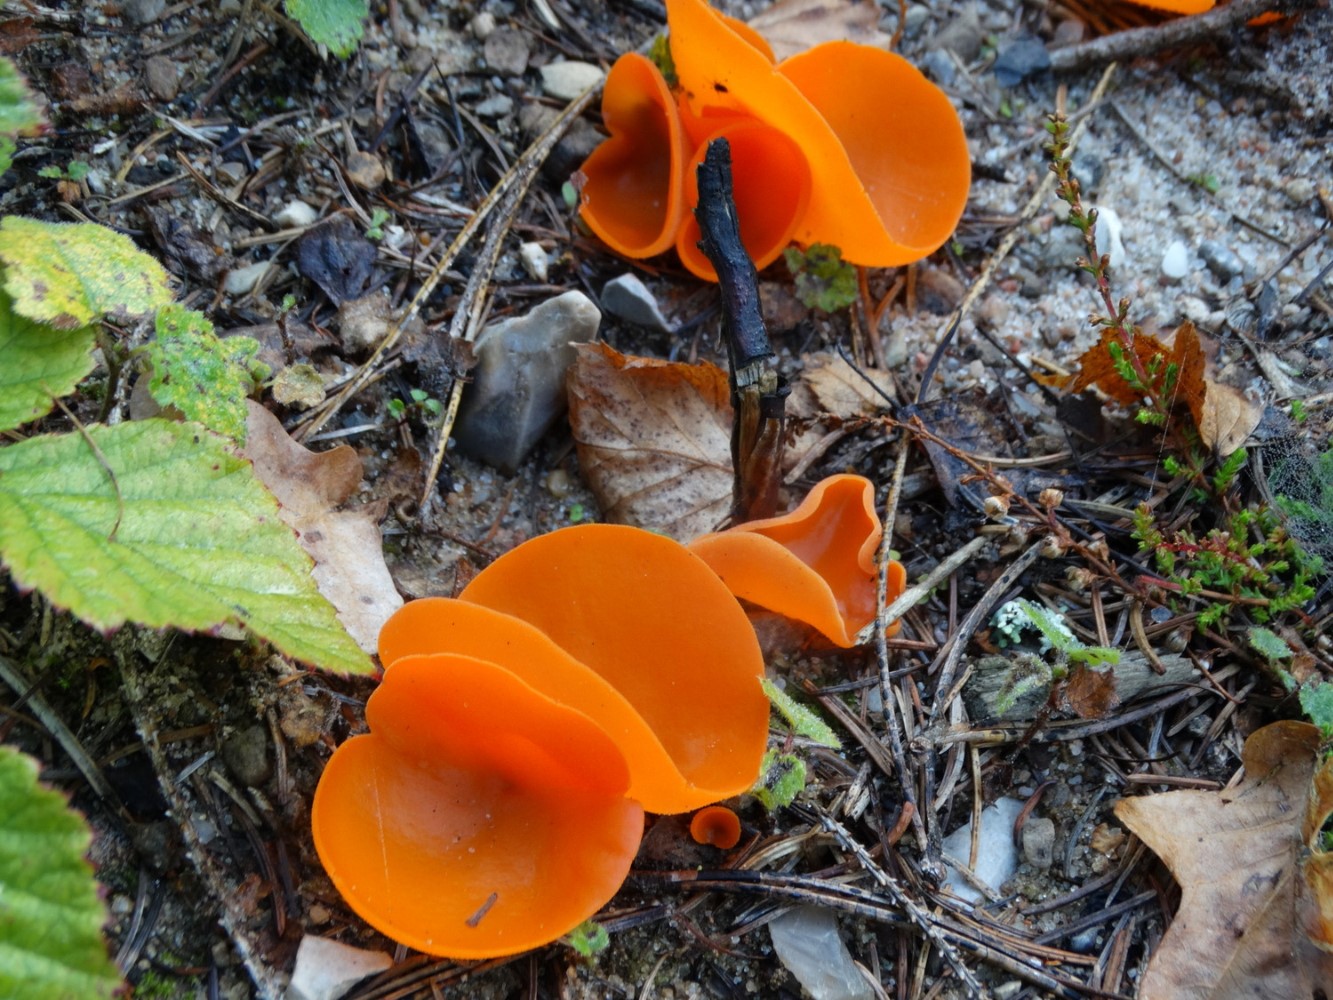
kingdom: Fungi
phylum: Ascomycota
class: Pezizomycetes
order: Pezizales
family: Pyronemataceae
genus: Aleuria
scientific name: Aleuria aurantia
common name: almindelig orangebæger
